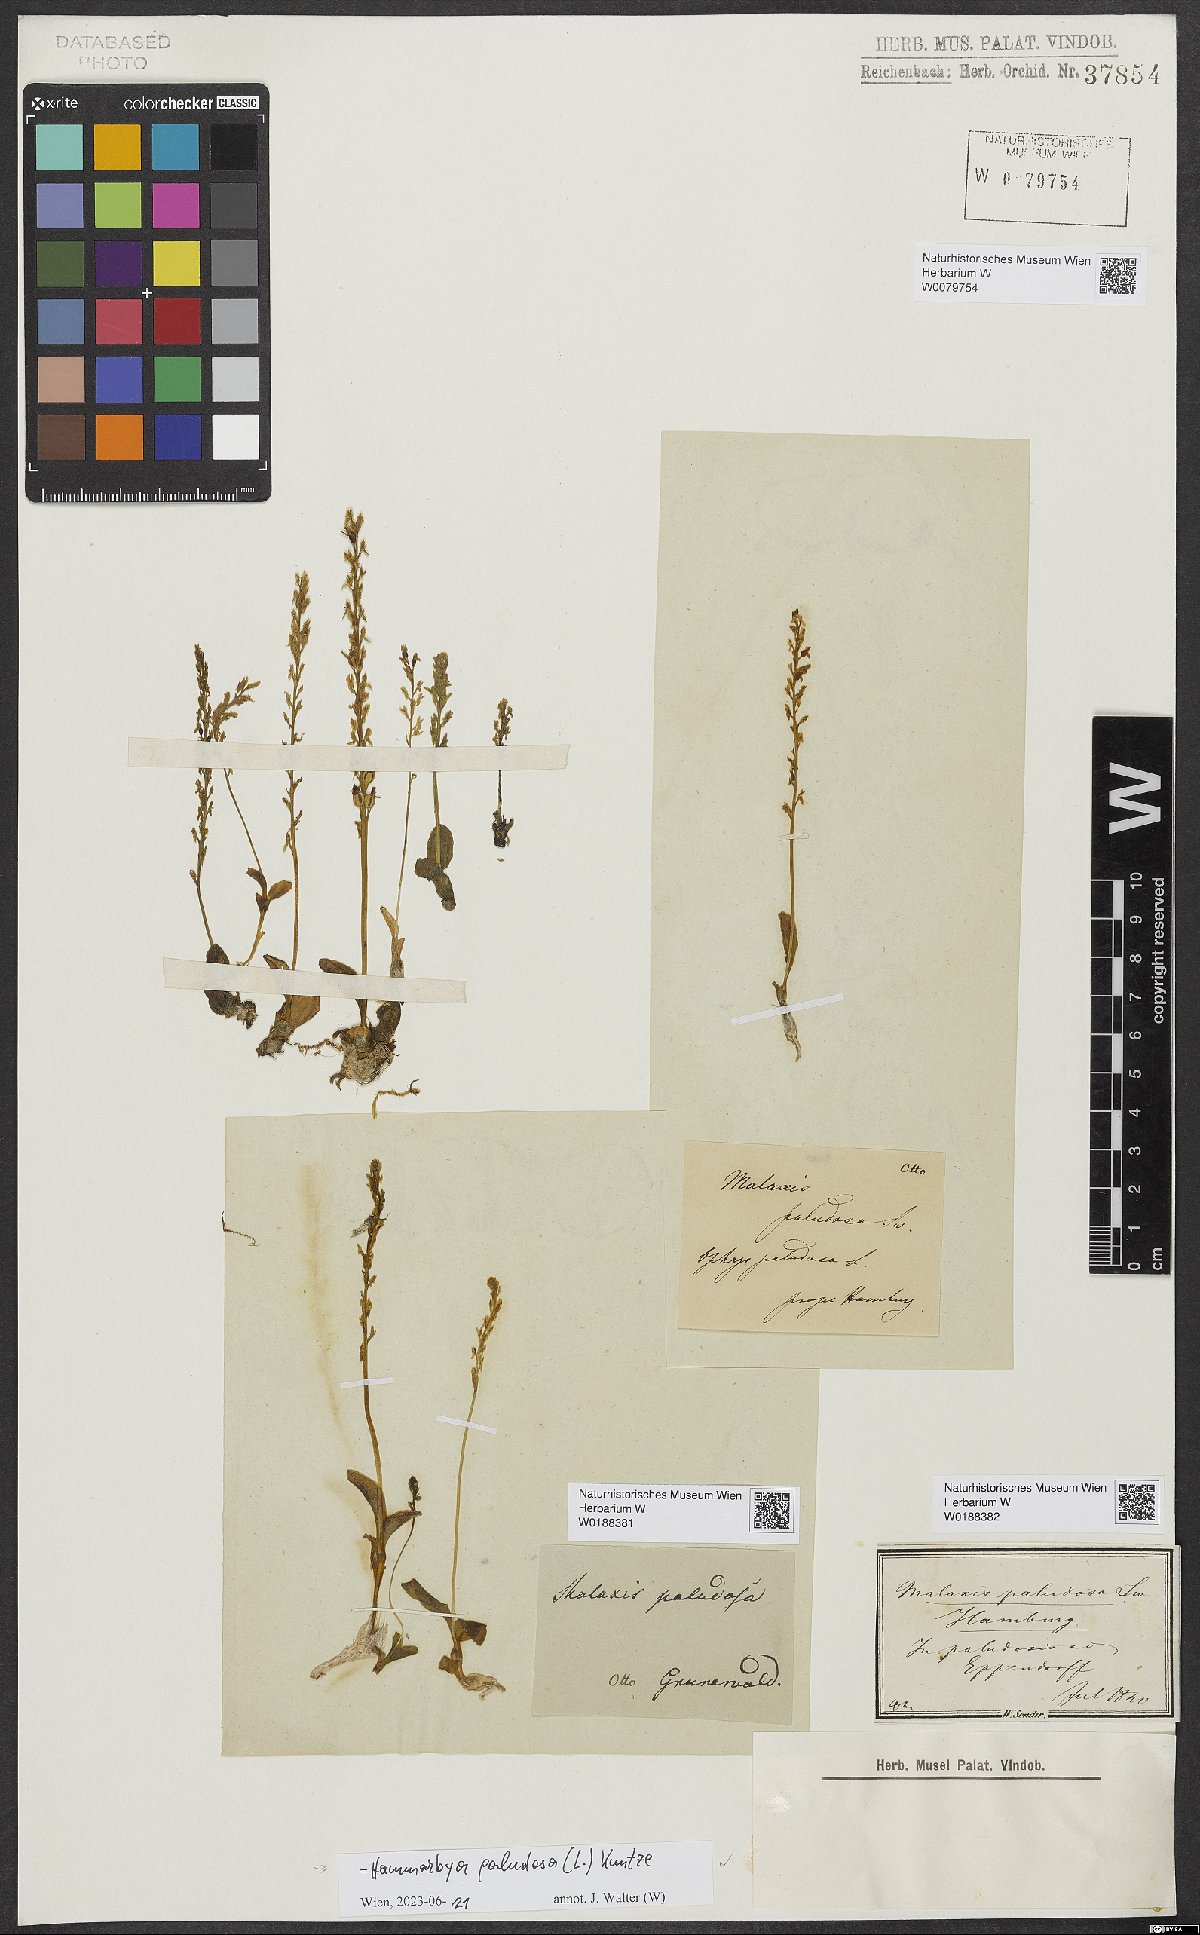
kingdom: Plantae
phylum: Tracheophyta
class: Liliopsida
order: Asparagales
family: Orchidaceae
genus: Hammarbya
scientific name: Hammarbya paludosa
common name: Bog orchid
